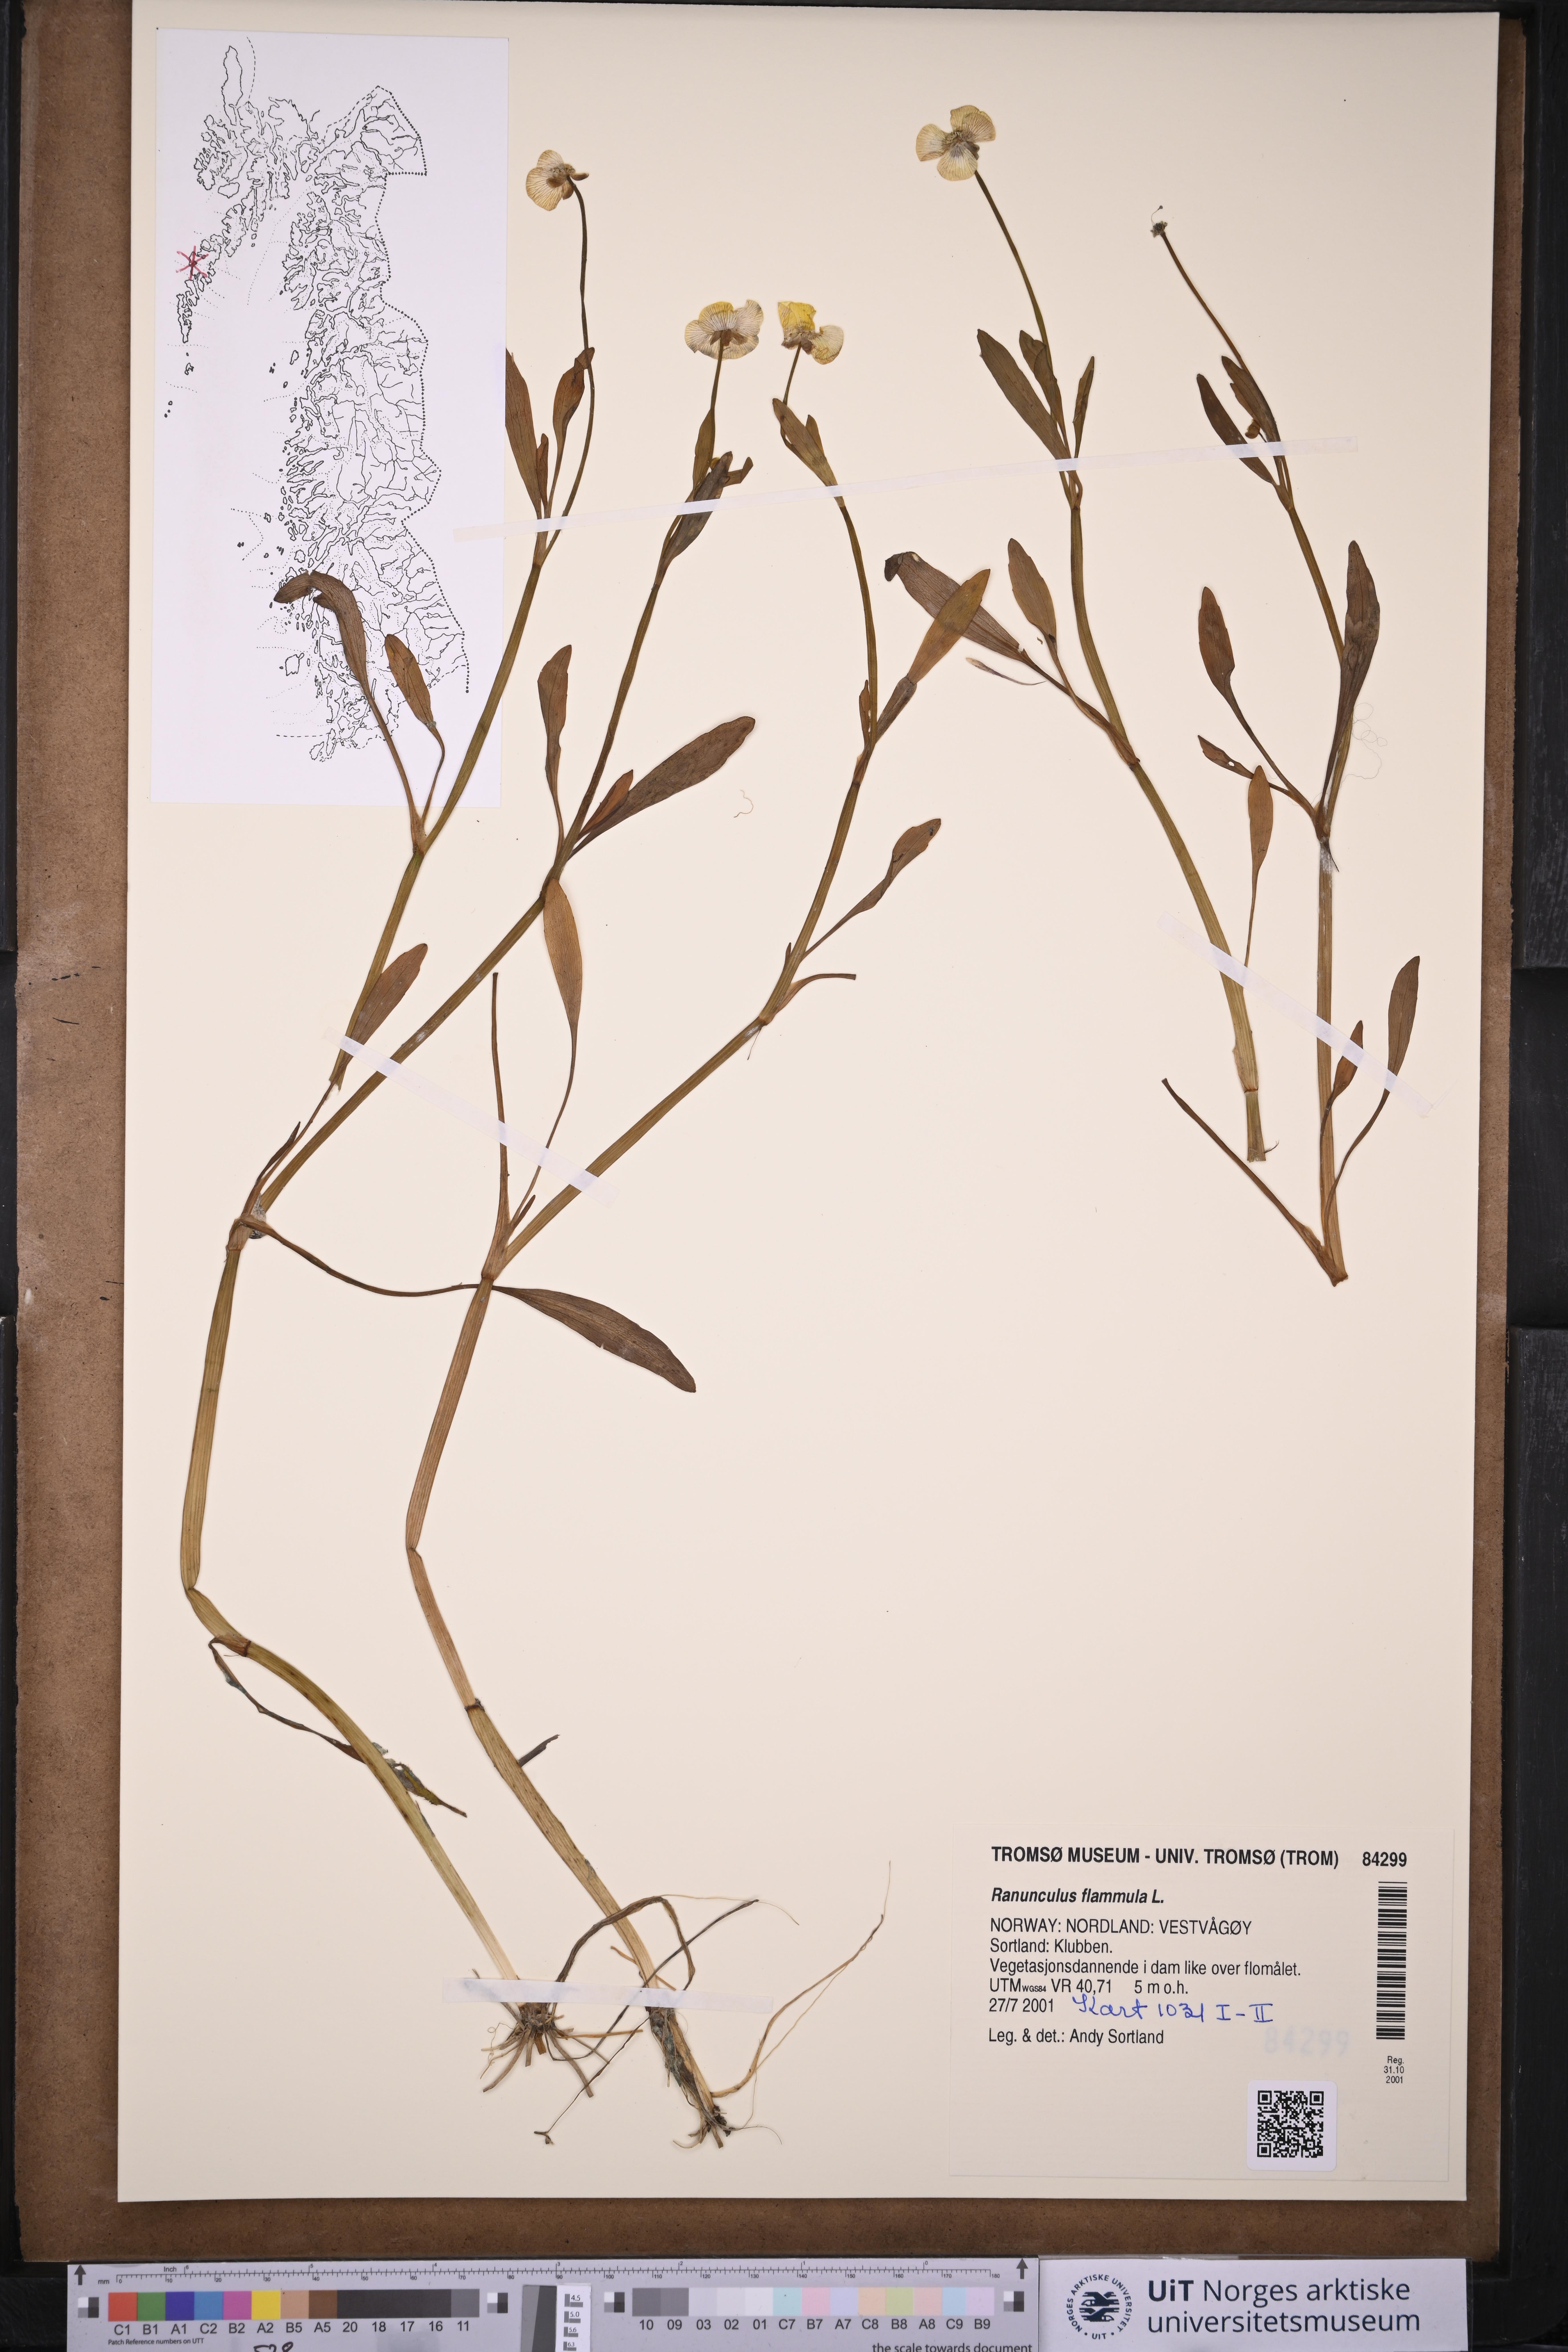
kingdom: Plantae
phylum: Tracheophyta
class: Magnoliopsida
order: Ranunculales
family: Ranunculaceae
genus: Ranunculus
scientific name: Ranunculus flammula
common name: Lesser spearwort
